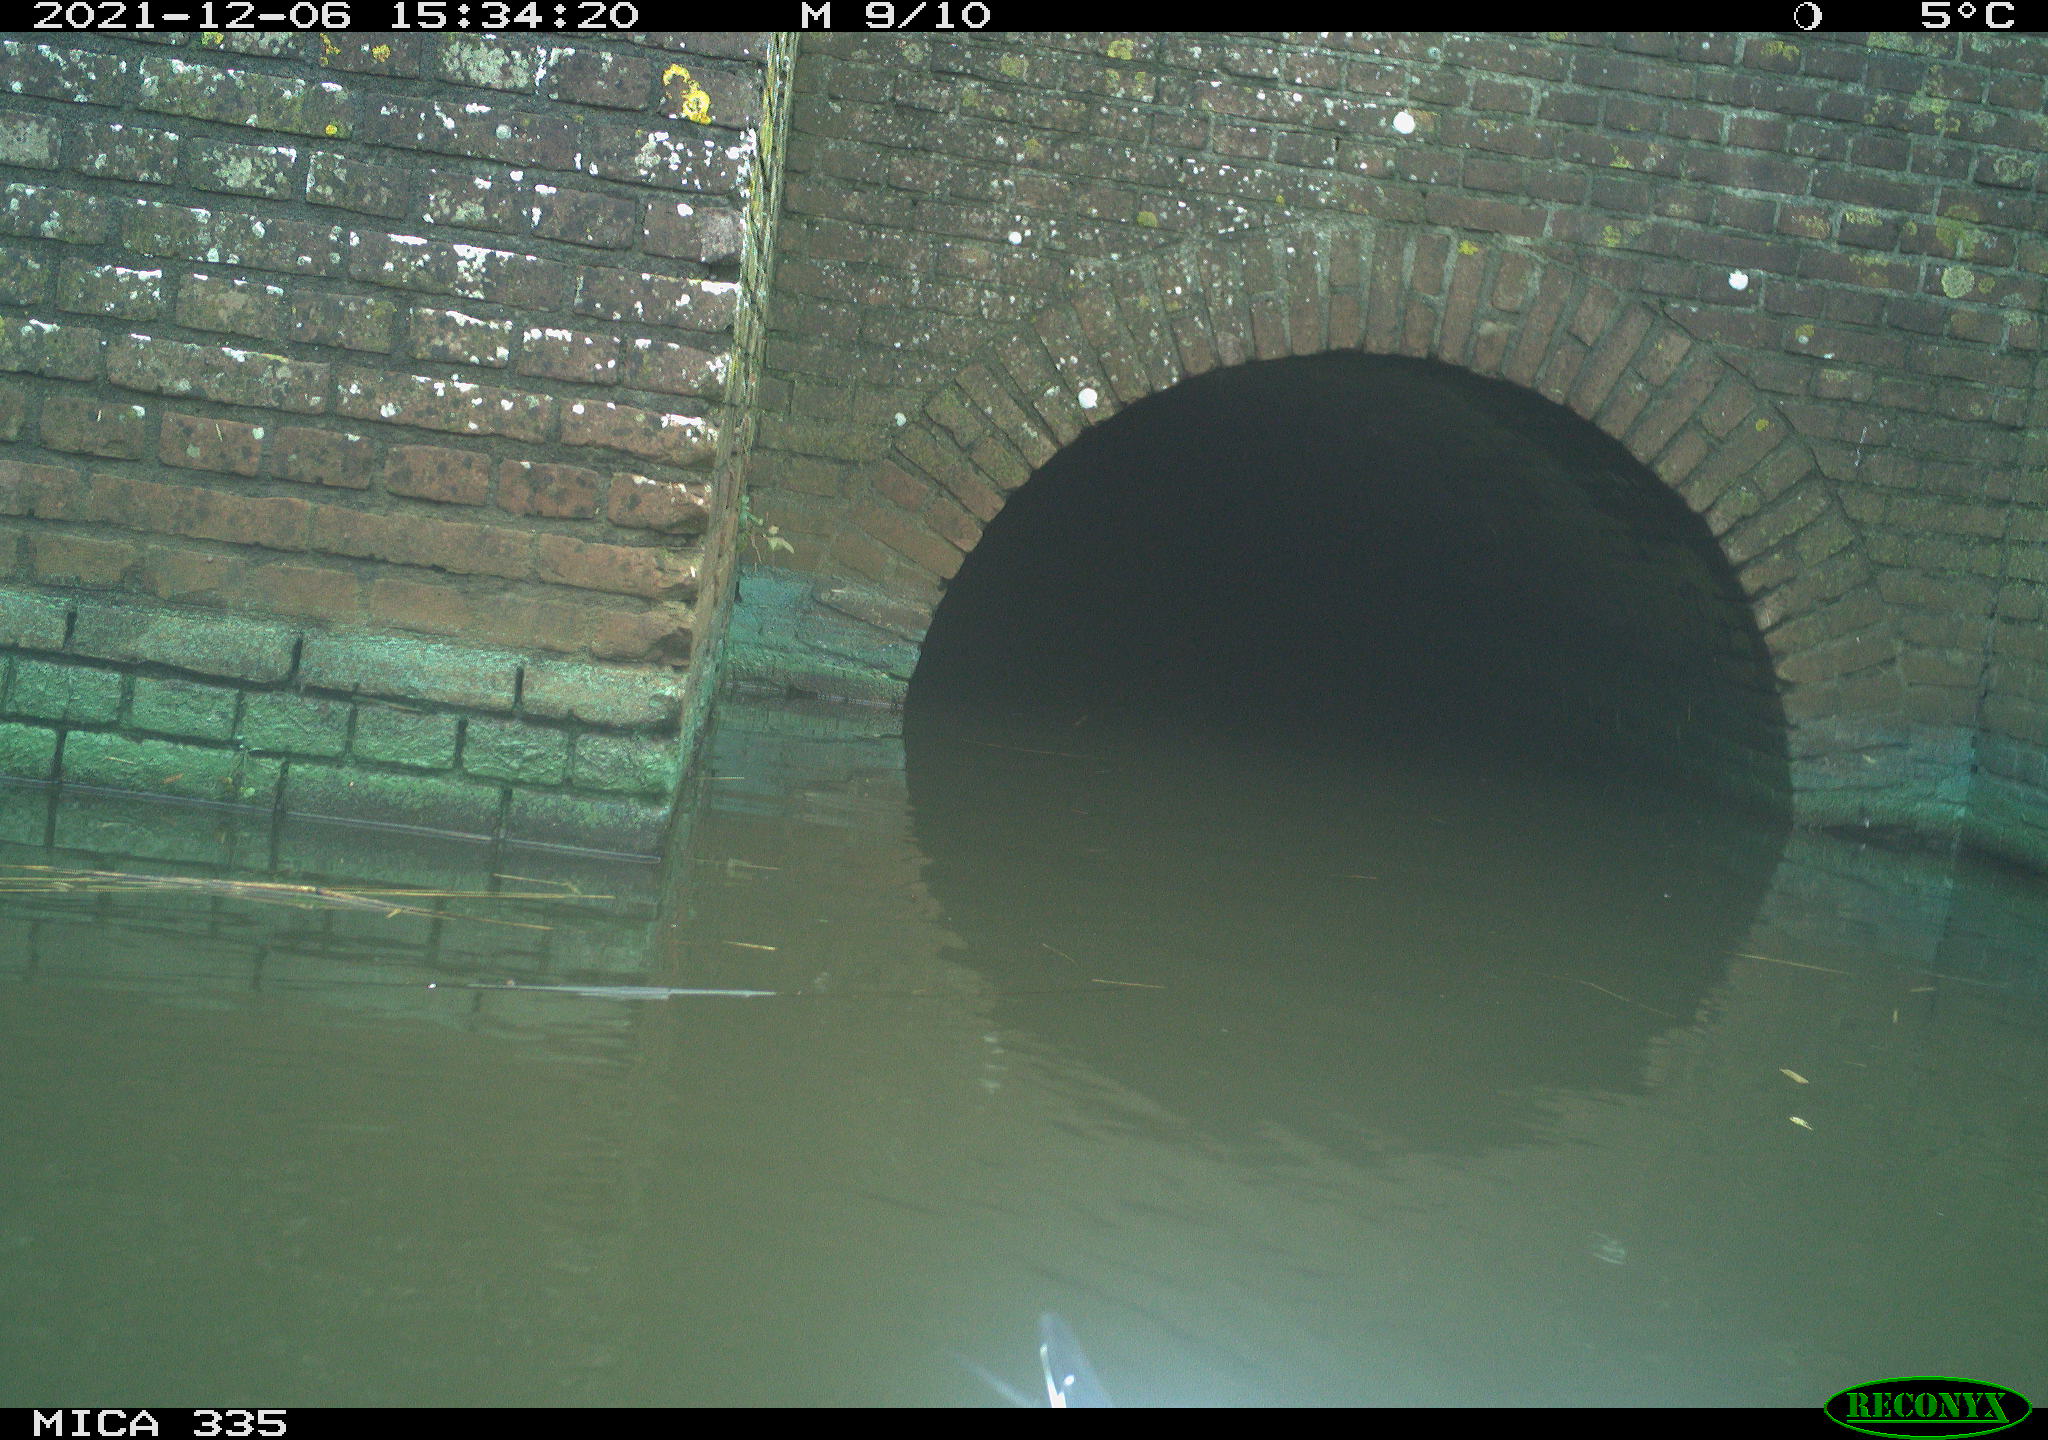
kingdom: Animalia
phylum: Chordata
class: Aves
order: Anseriformes
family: Anatidae
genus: Anas
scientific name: Anas platyrhynchos
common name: Mallard
